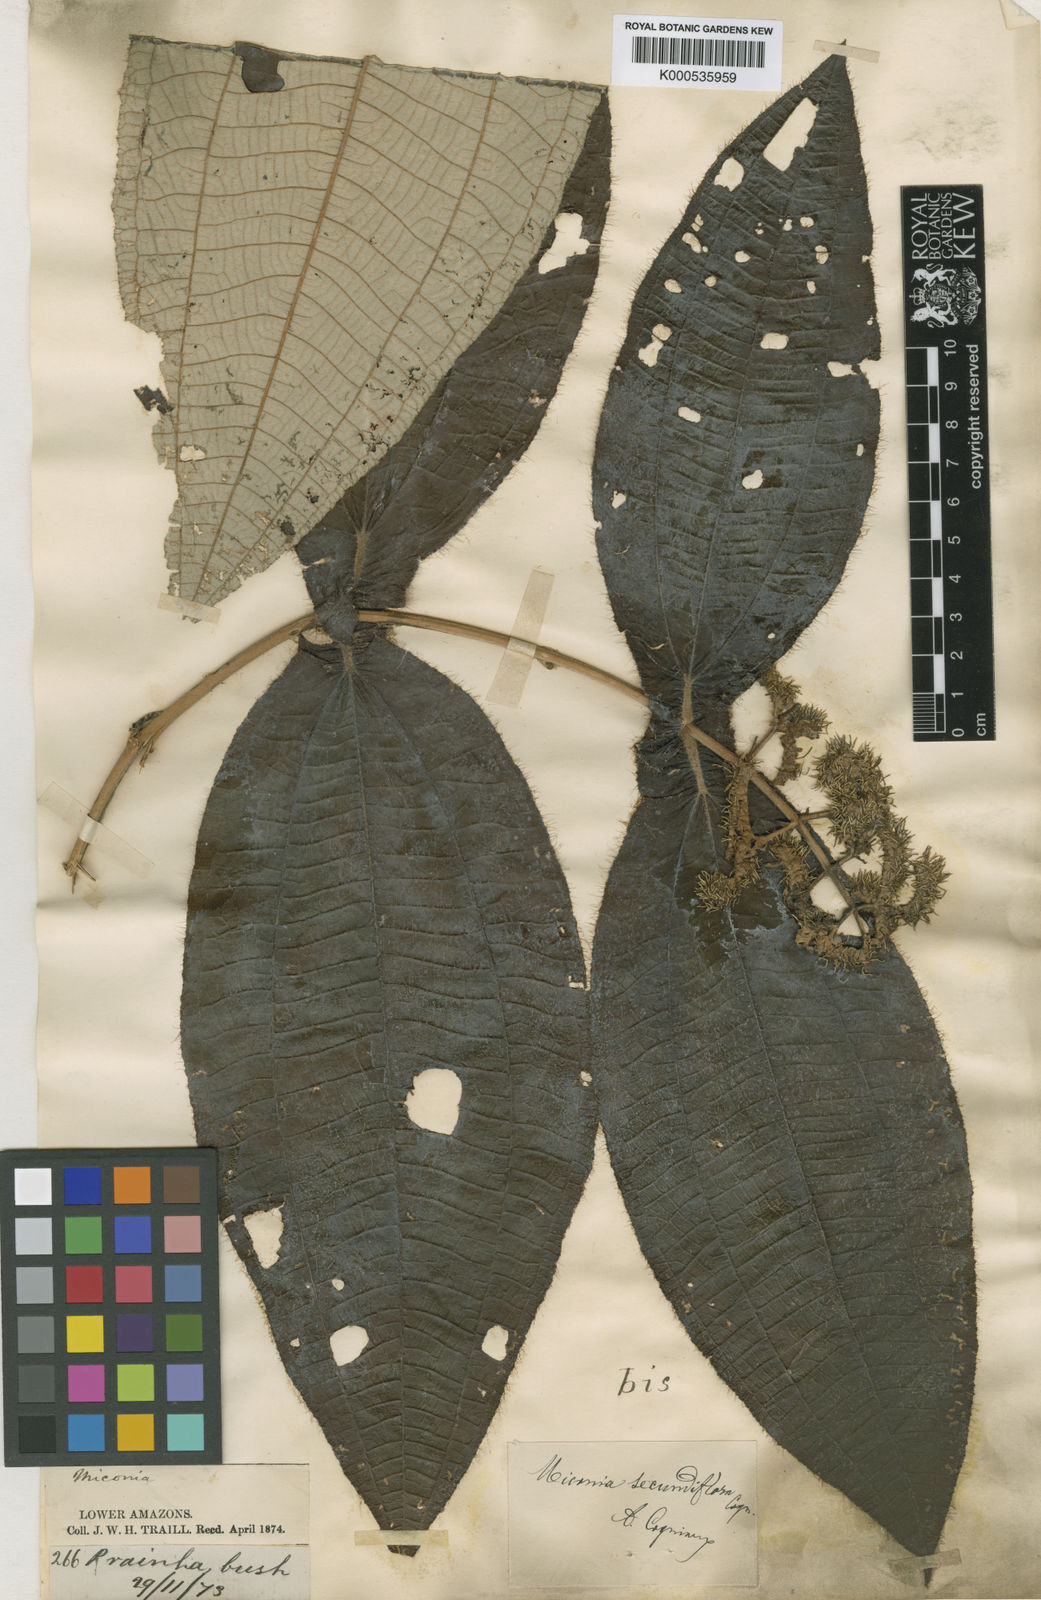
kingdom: Plantae
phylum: Tracheophyta
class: Magnoliopsida
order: Myrtales
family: Melastomataceae
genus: Miconia
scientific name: Miconia secundiflora
